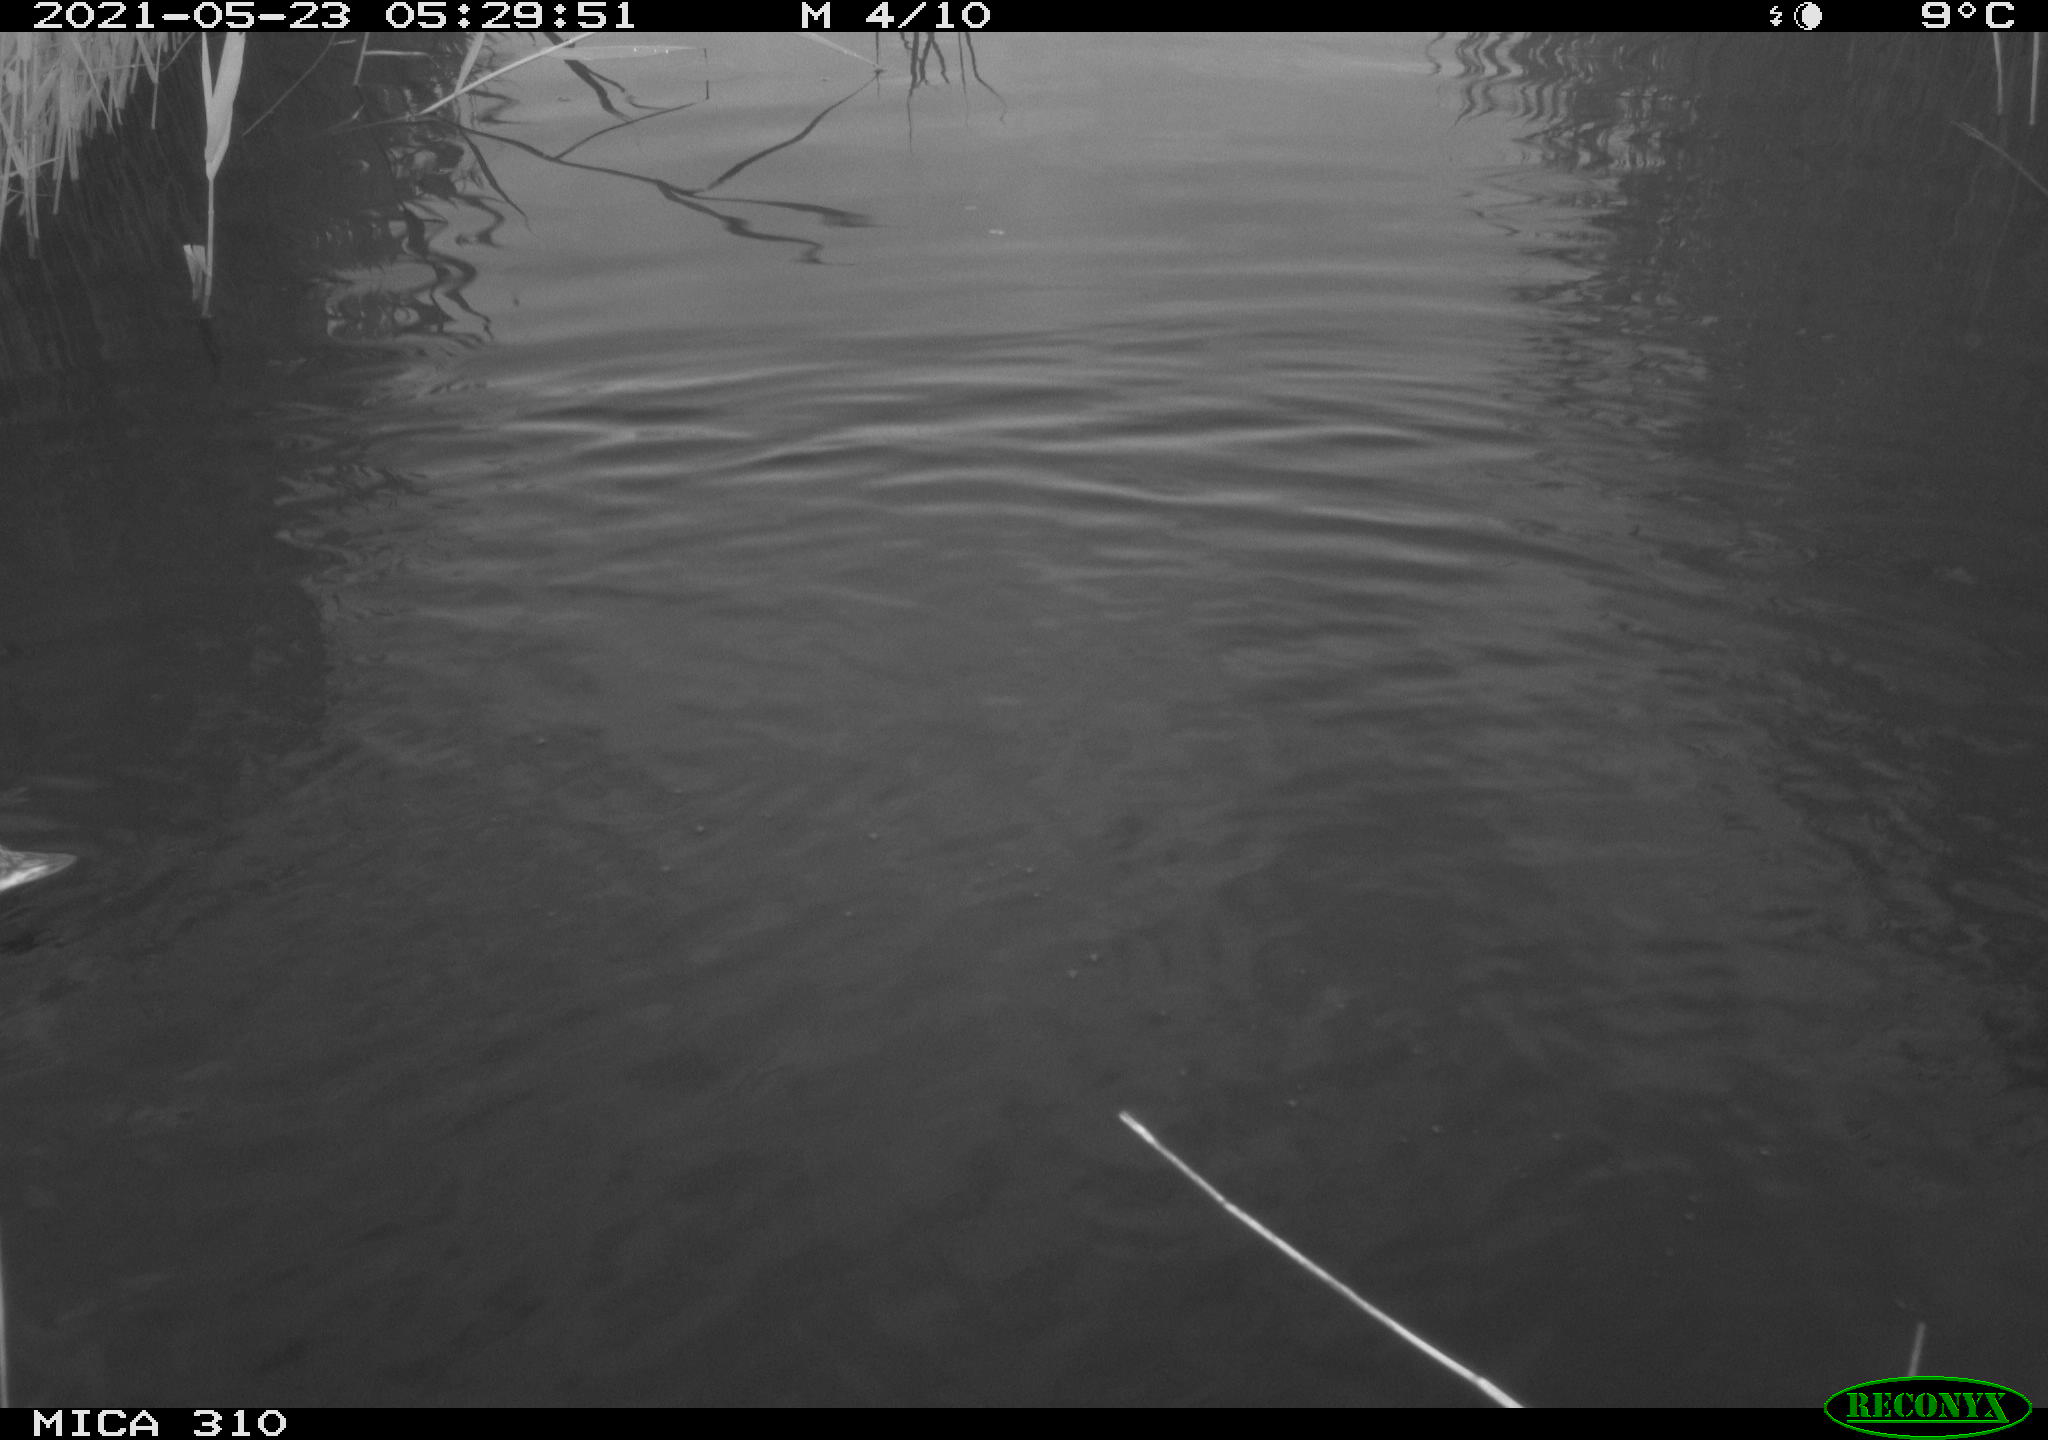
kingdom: Animalia
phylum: Chordata
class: Aves
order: Anseriformes
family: Anatidae
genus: Anas
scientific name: Anas platyrhynchos
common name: Mallard
